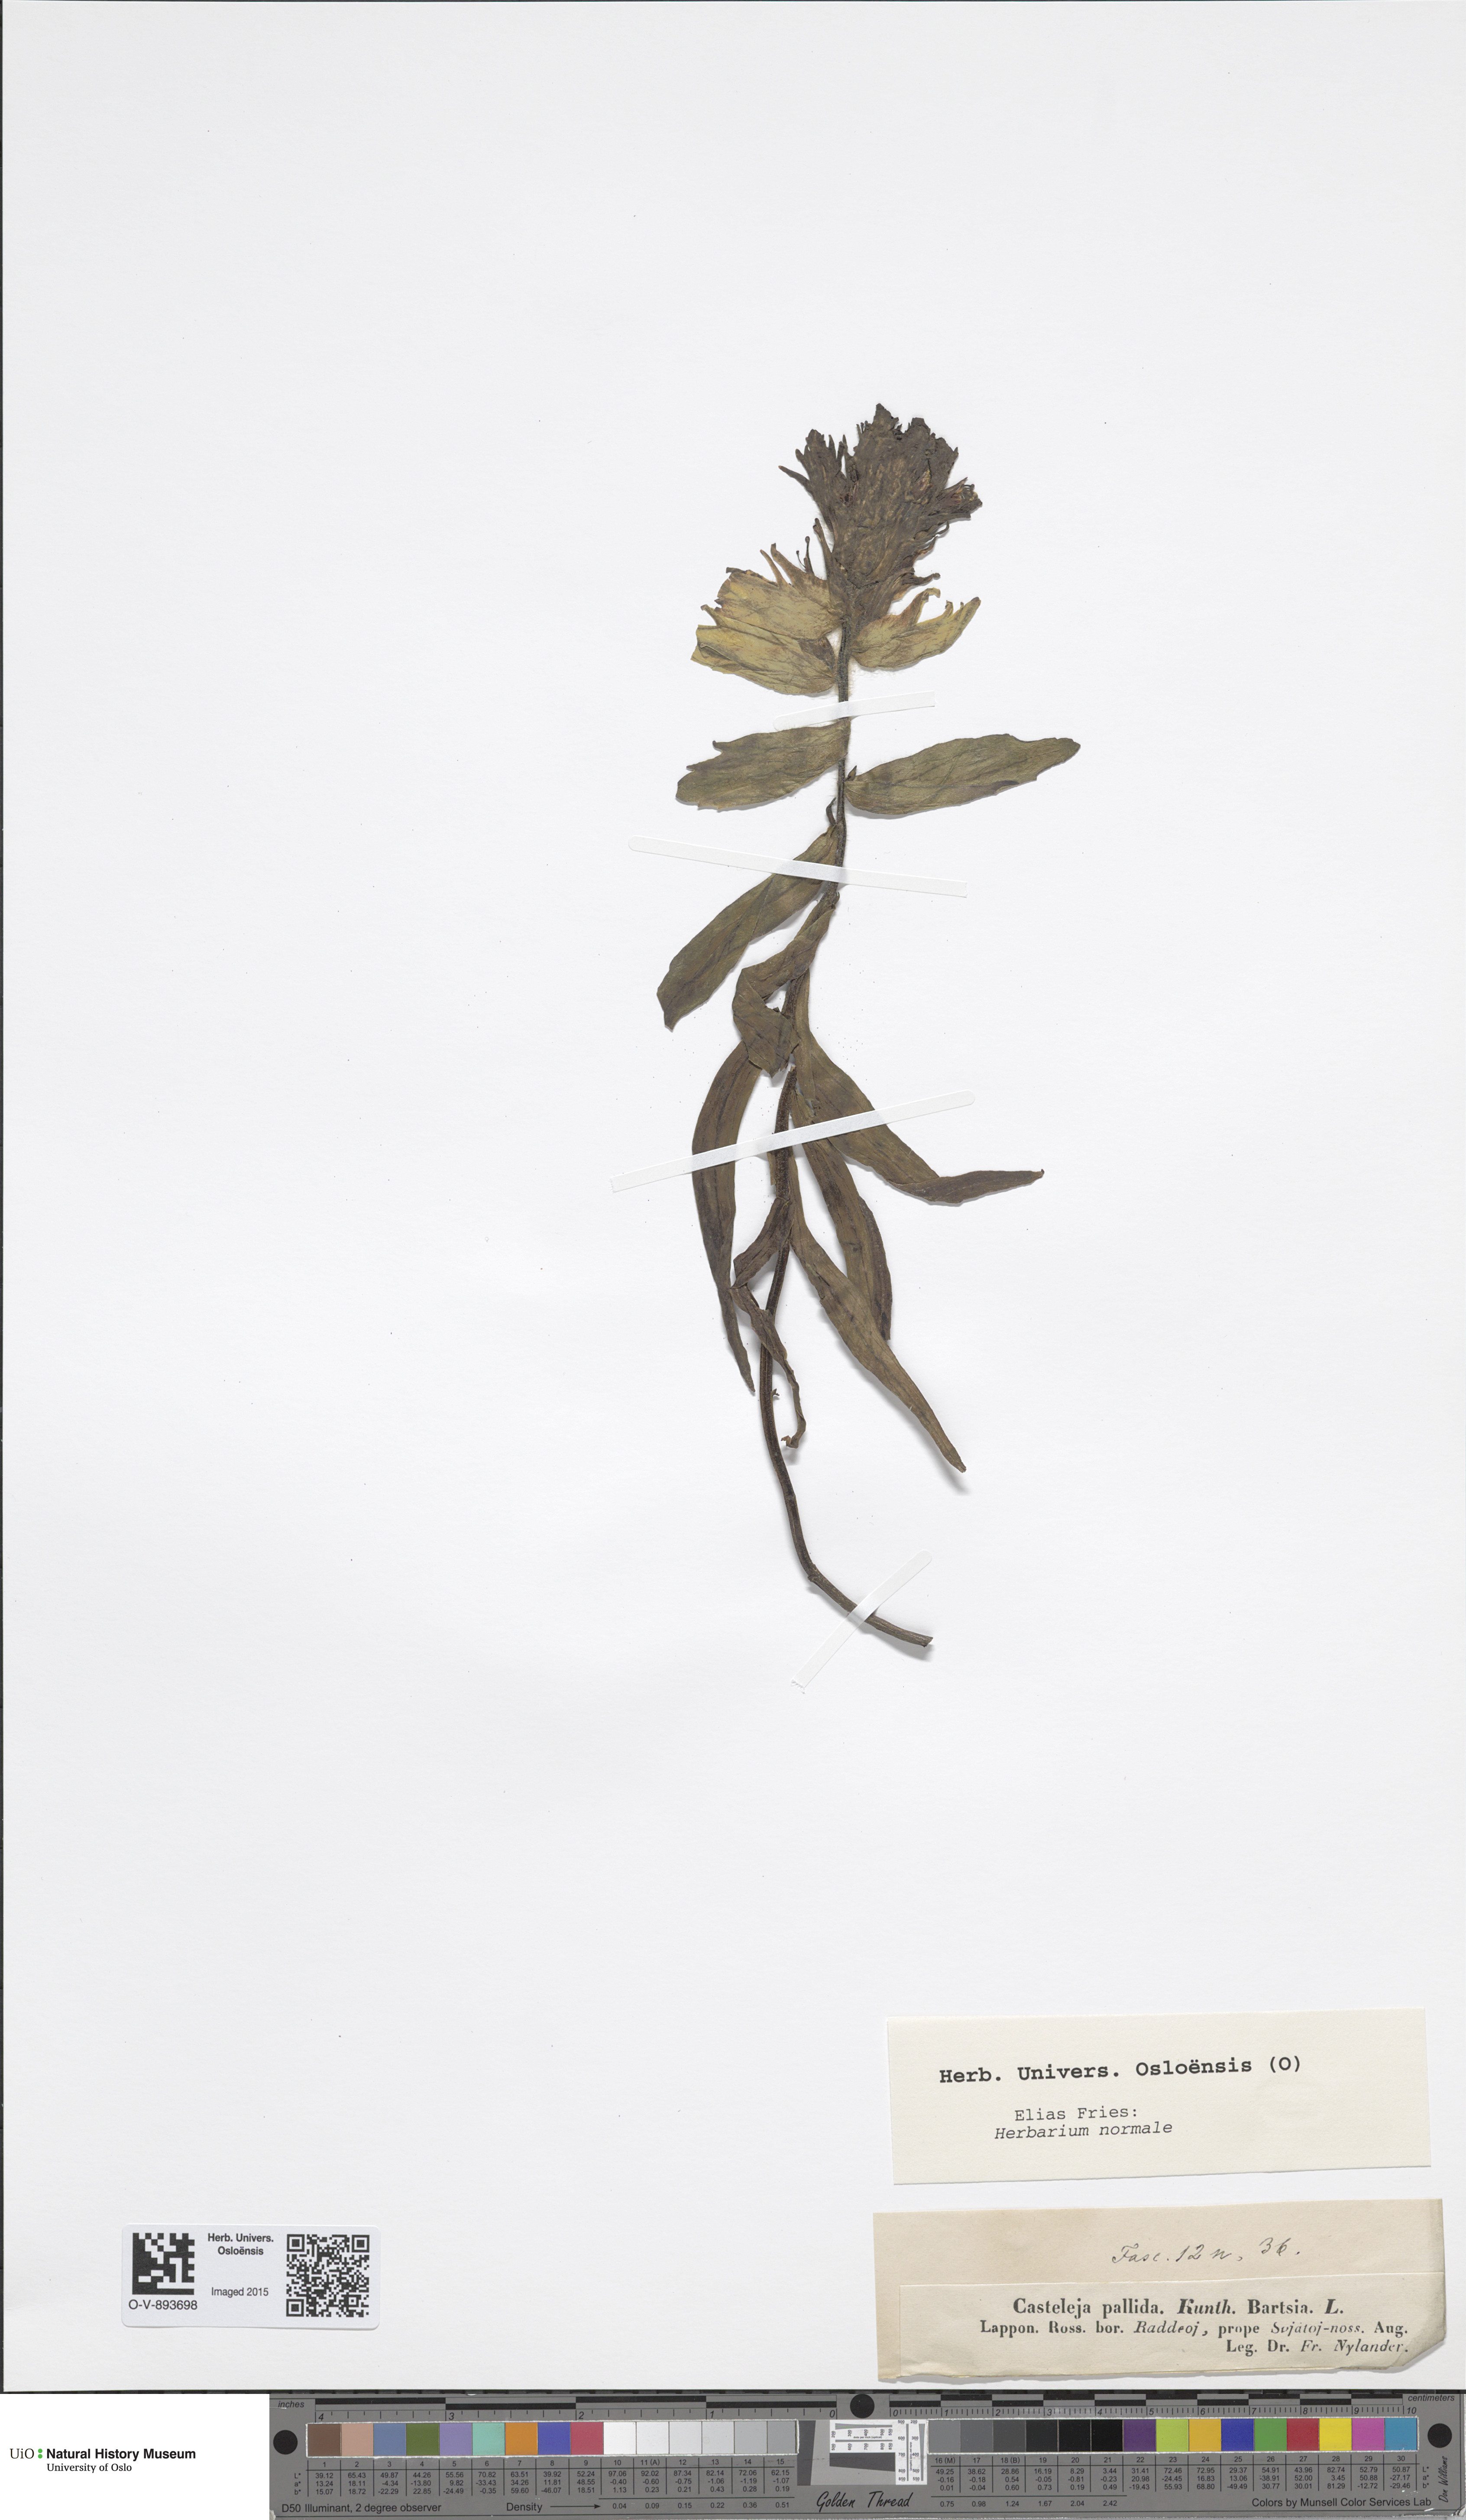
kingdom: Plantae
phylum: Tracheophyta
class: Magnoliopsida
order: Lamiales
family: Orobanchaceae
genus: Castilleja
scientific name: Castilleja lapponica
